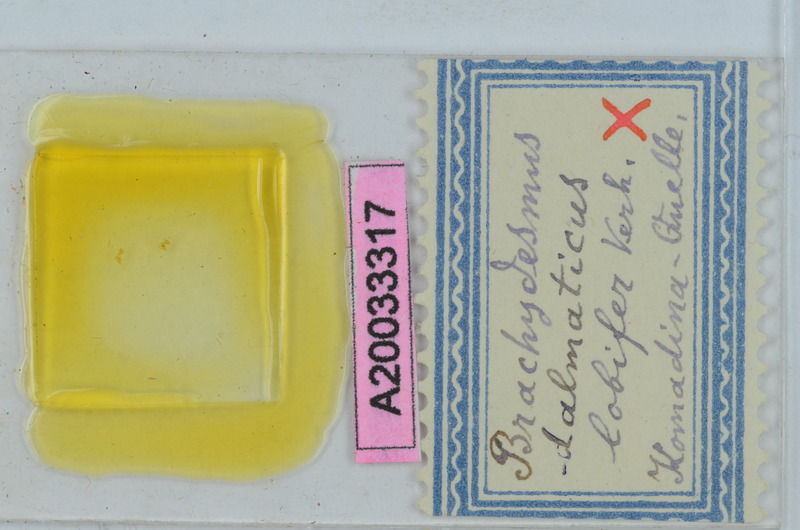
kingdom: Animalia
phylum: Arthropoda
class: Diplopoda
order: Polydesmida
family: Polydesmidae
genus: Brachydesmus
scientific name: Brachydesmus dalmaticus
